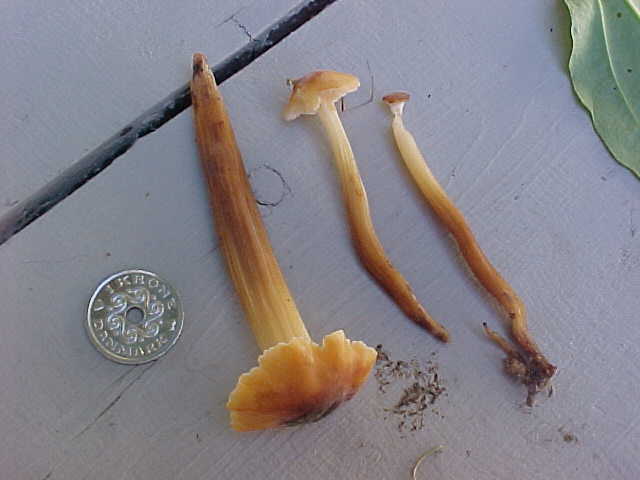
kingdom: Fungi
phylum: Basidiomycota
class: Agaricomycetes
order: Agaricales
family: Physalacriaceae
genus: Flammulina
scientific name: Flammulina fennae
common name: rodslående fløjlsfod
